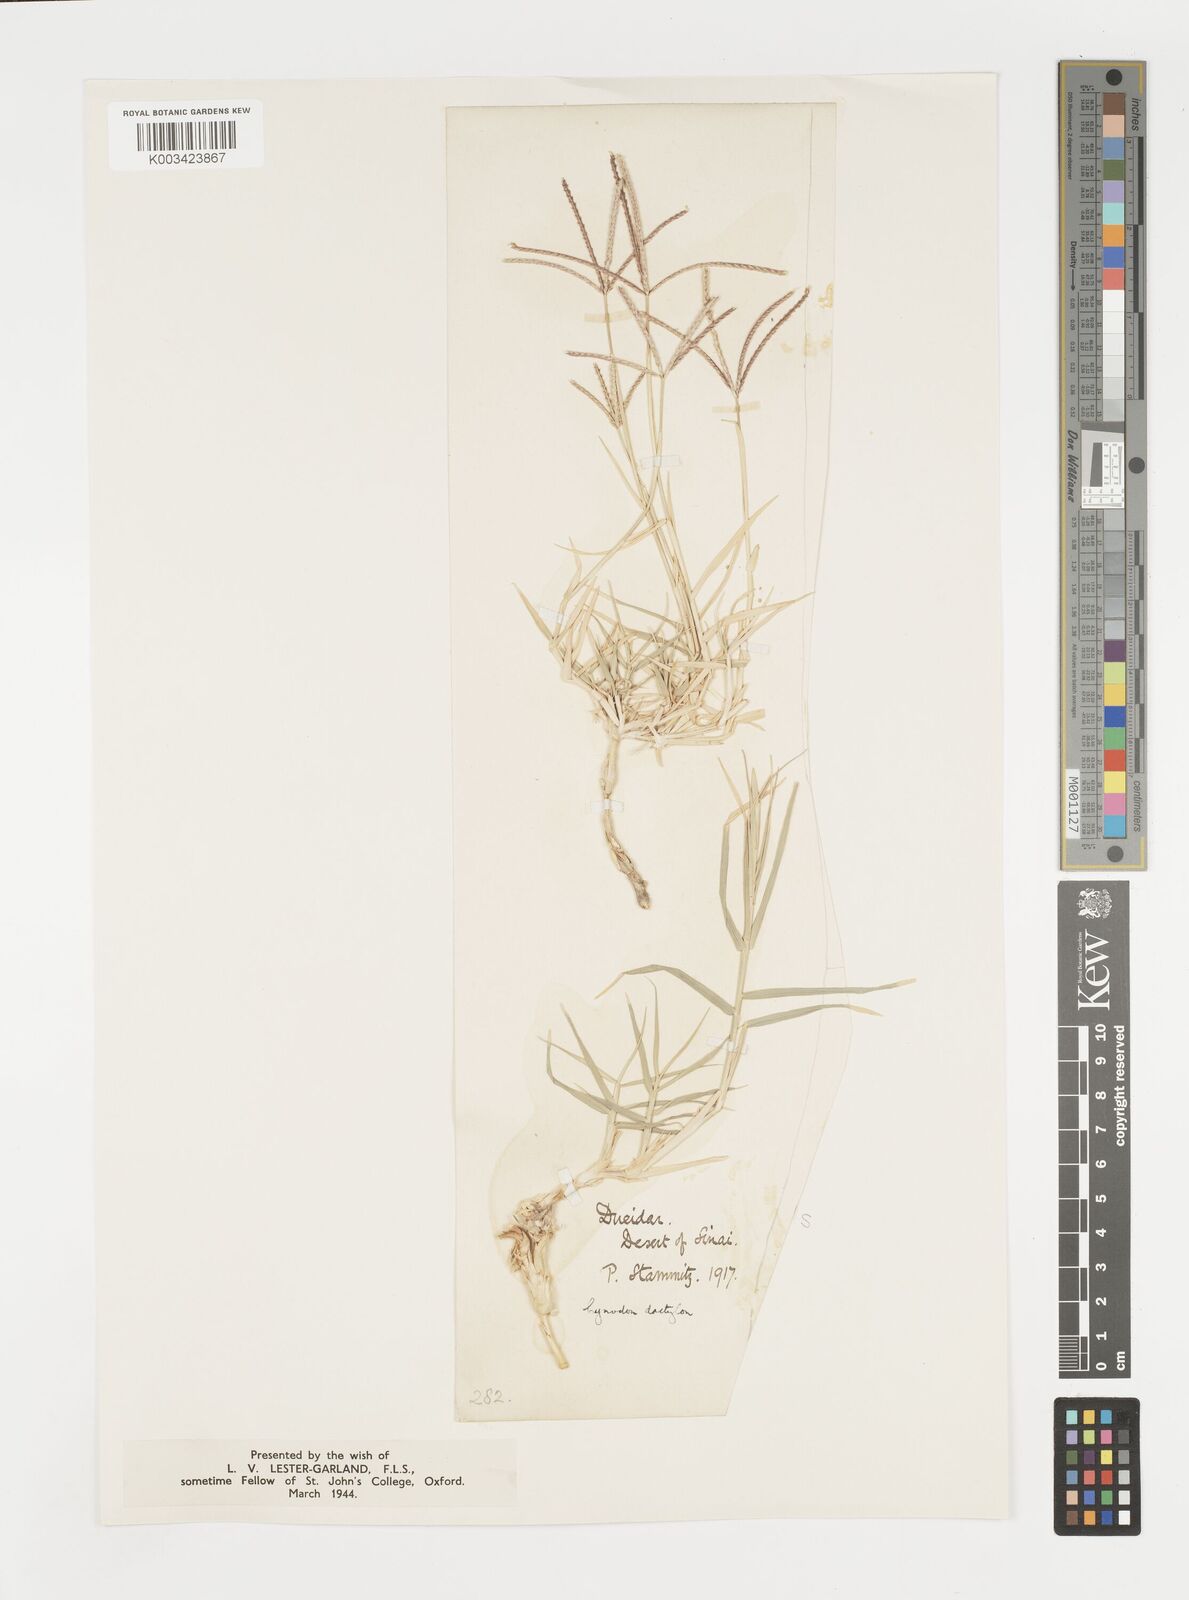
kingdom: Plantae
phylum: Tracheophyta
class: Liliopsida
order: Poales
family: Poaceae
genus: Cynodon
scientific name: Cynodon dactylon
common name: Bermuda grass
